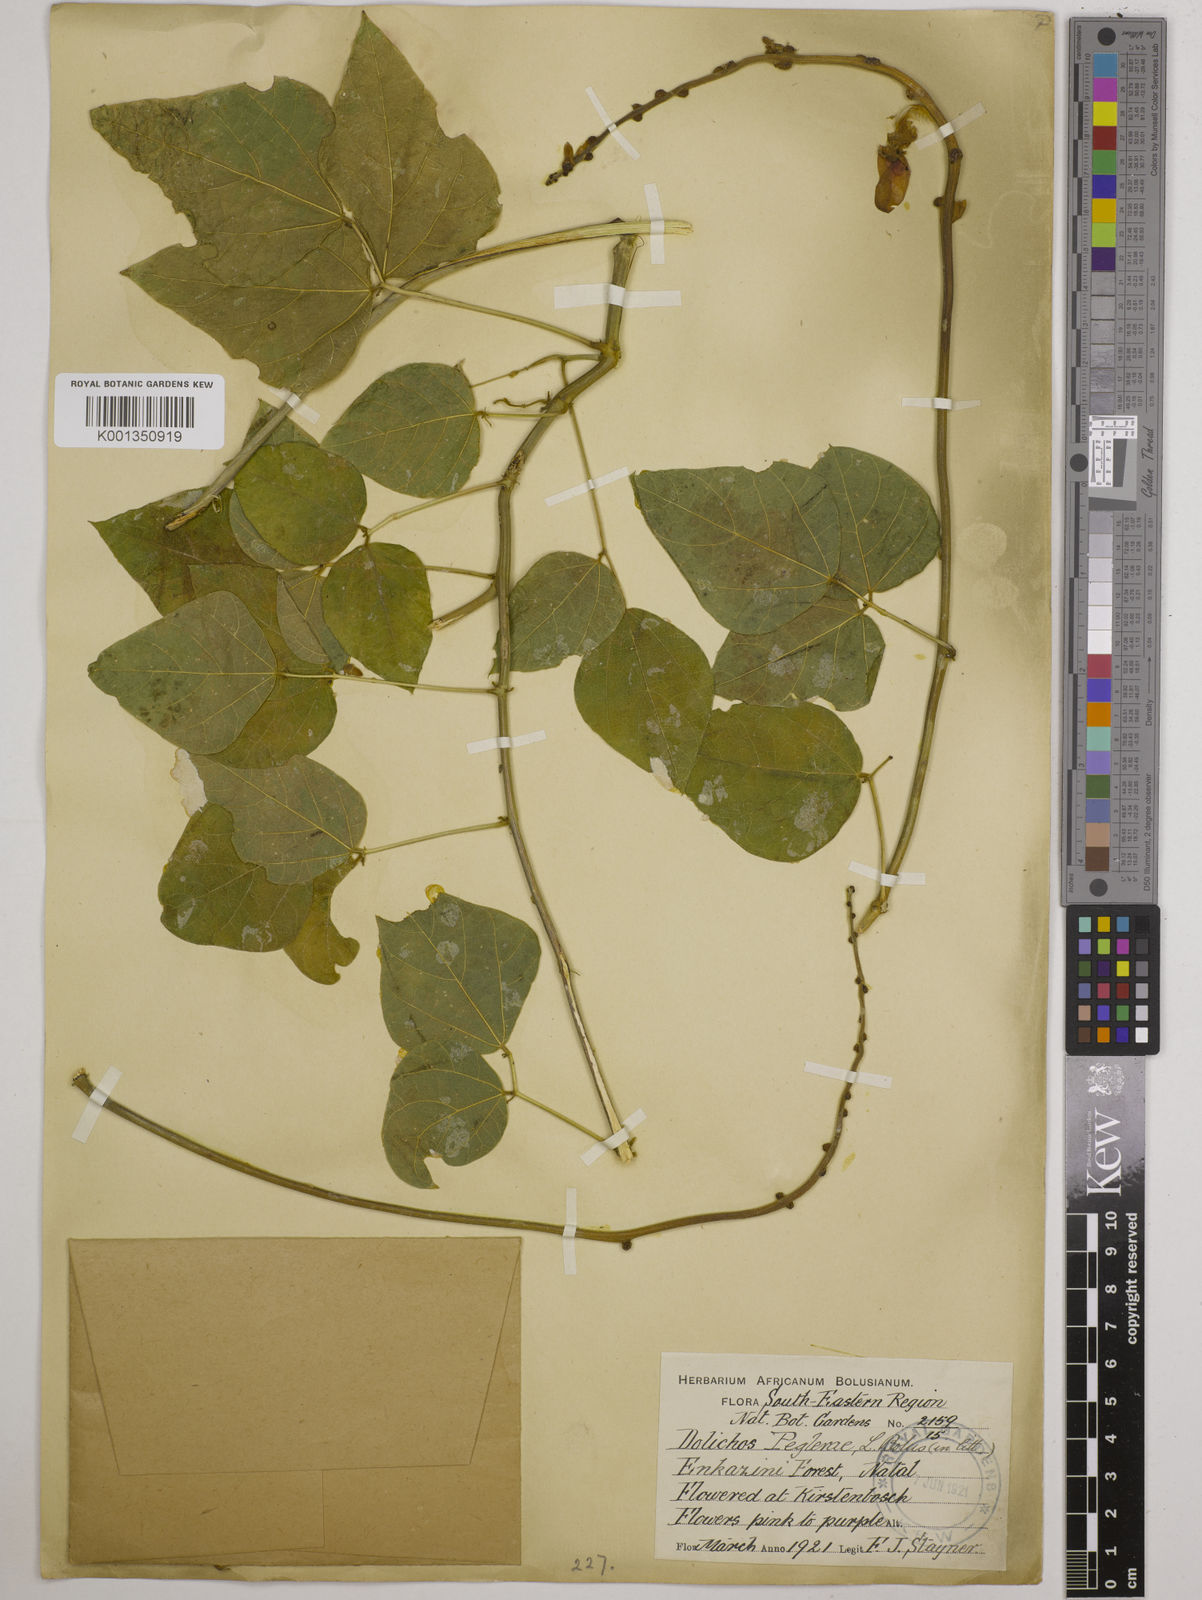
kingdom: Plantae
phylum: Tracheophyta
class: Magnoliopsida
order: Fabales
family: Fabaceae
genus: Dolichos
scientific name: Dolichos peglerae
